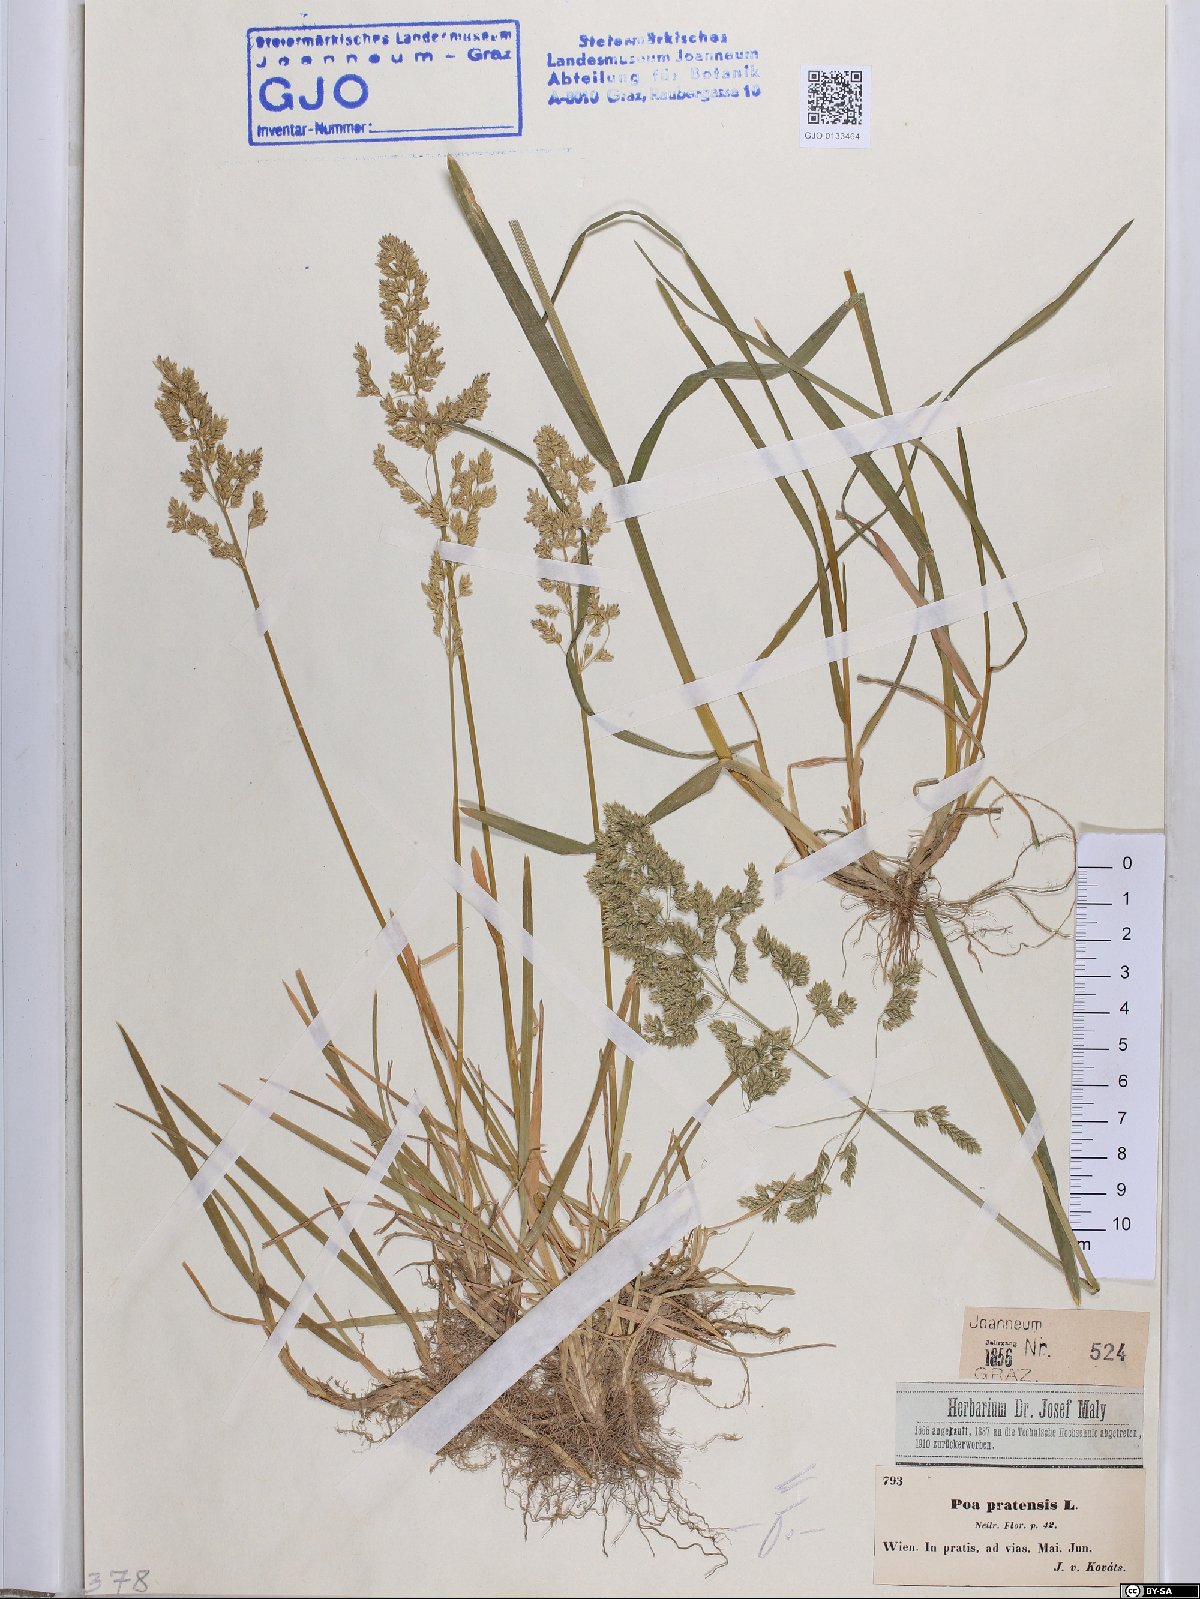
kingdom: Plantae
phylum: Tracheophyta
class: Liliopsida
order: Poales
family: Poaceae
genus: Poa
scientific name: Poa pratensis
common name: Kentucky bluegrass
